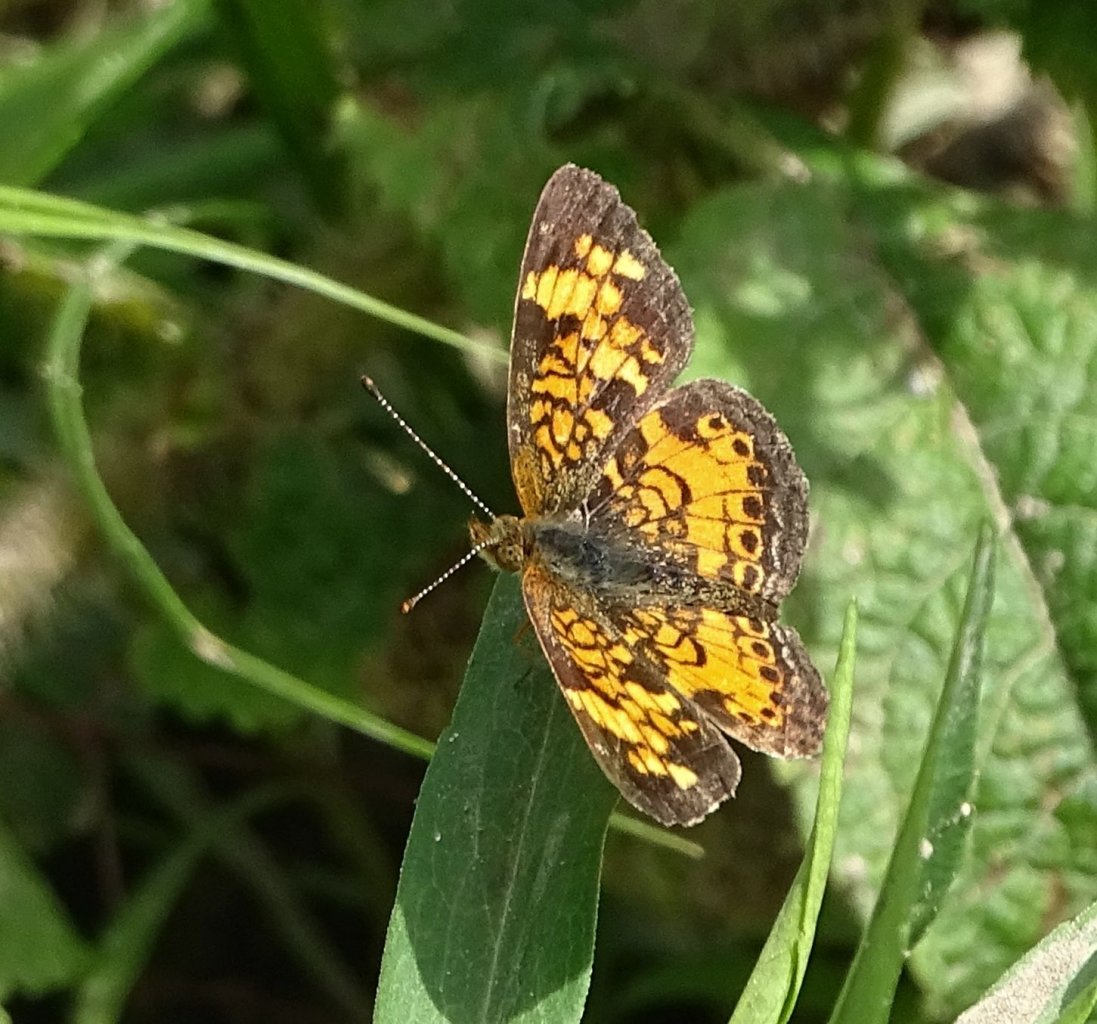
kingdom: Animalia
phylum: Arthropoda
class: Insecta
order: Lepidoptera
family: Nymphalidae
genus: Phyciodes
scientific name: Phyciodes
